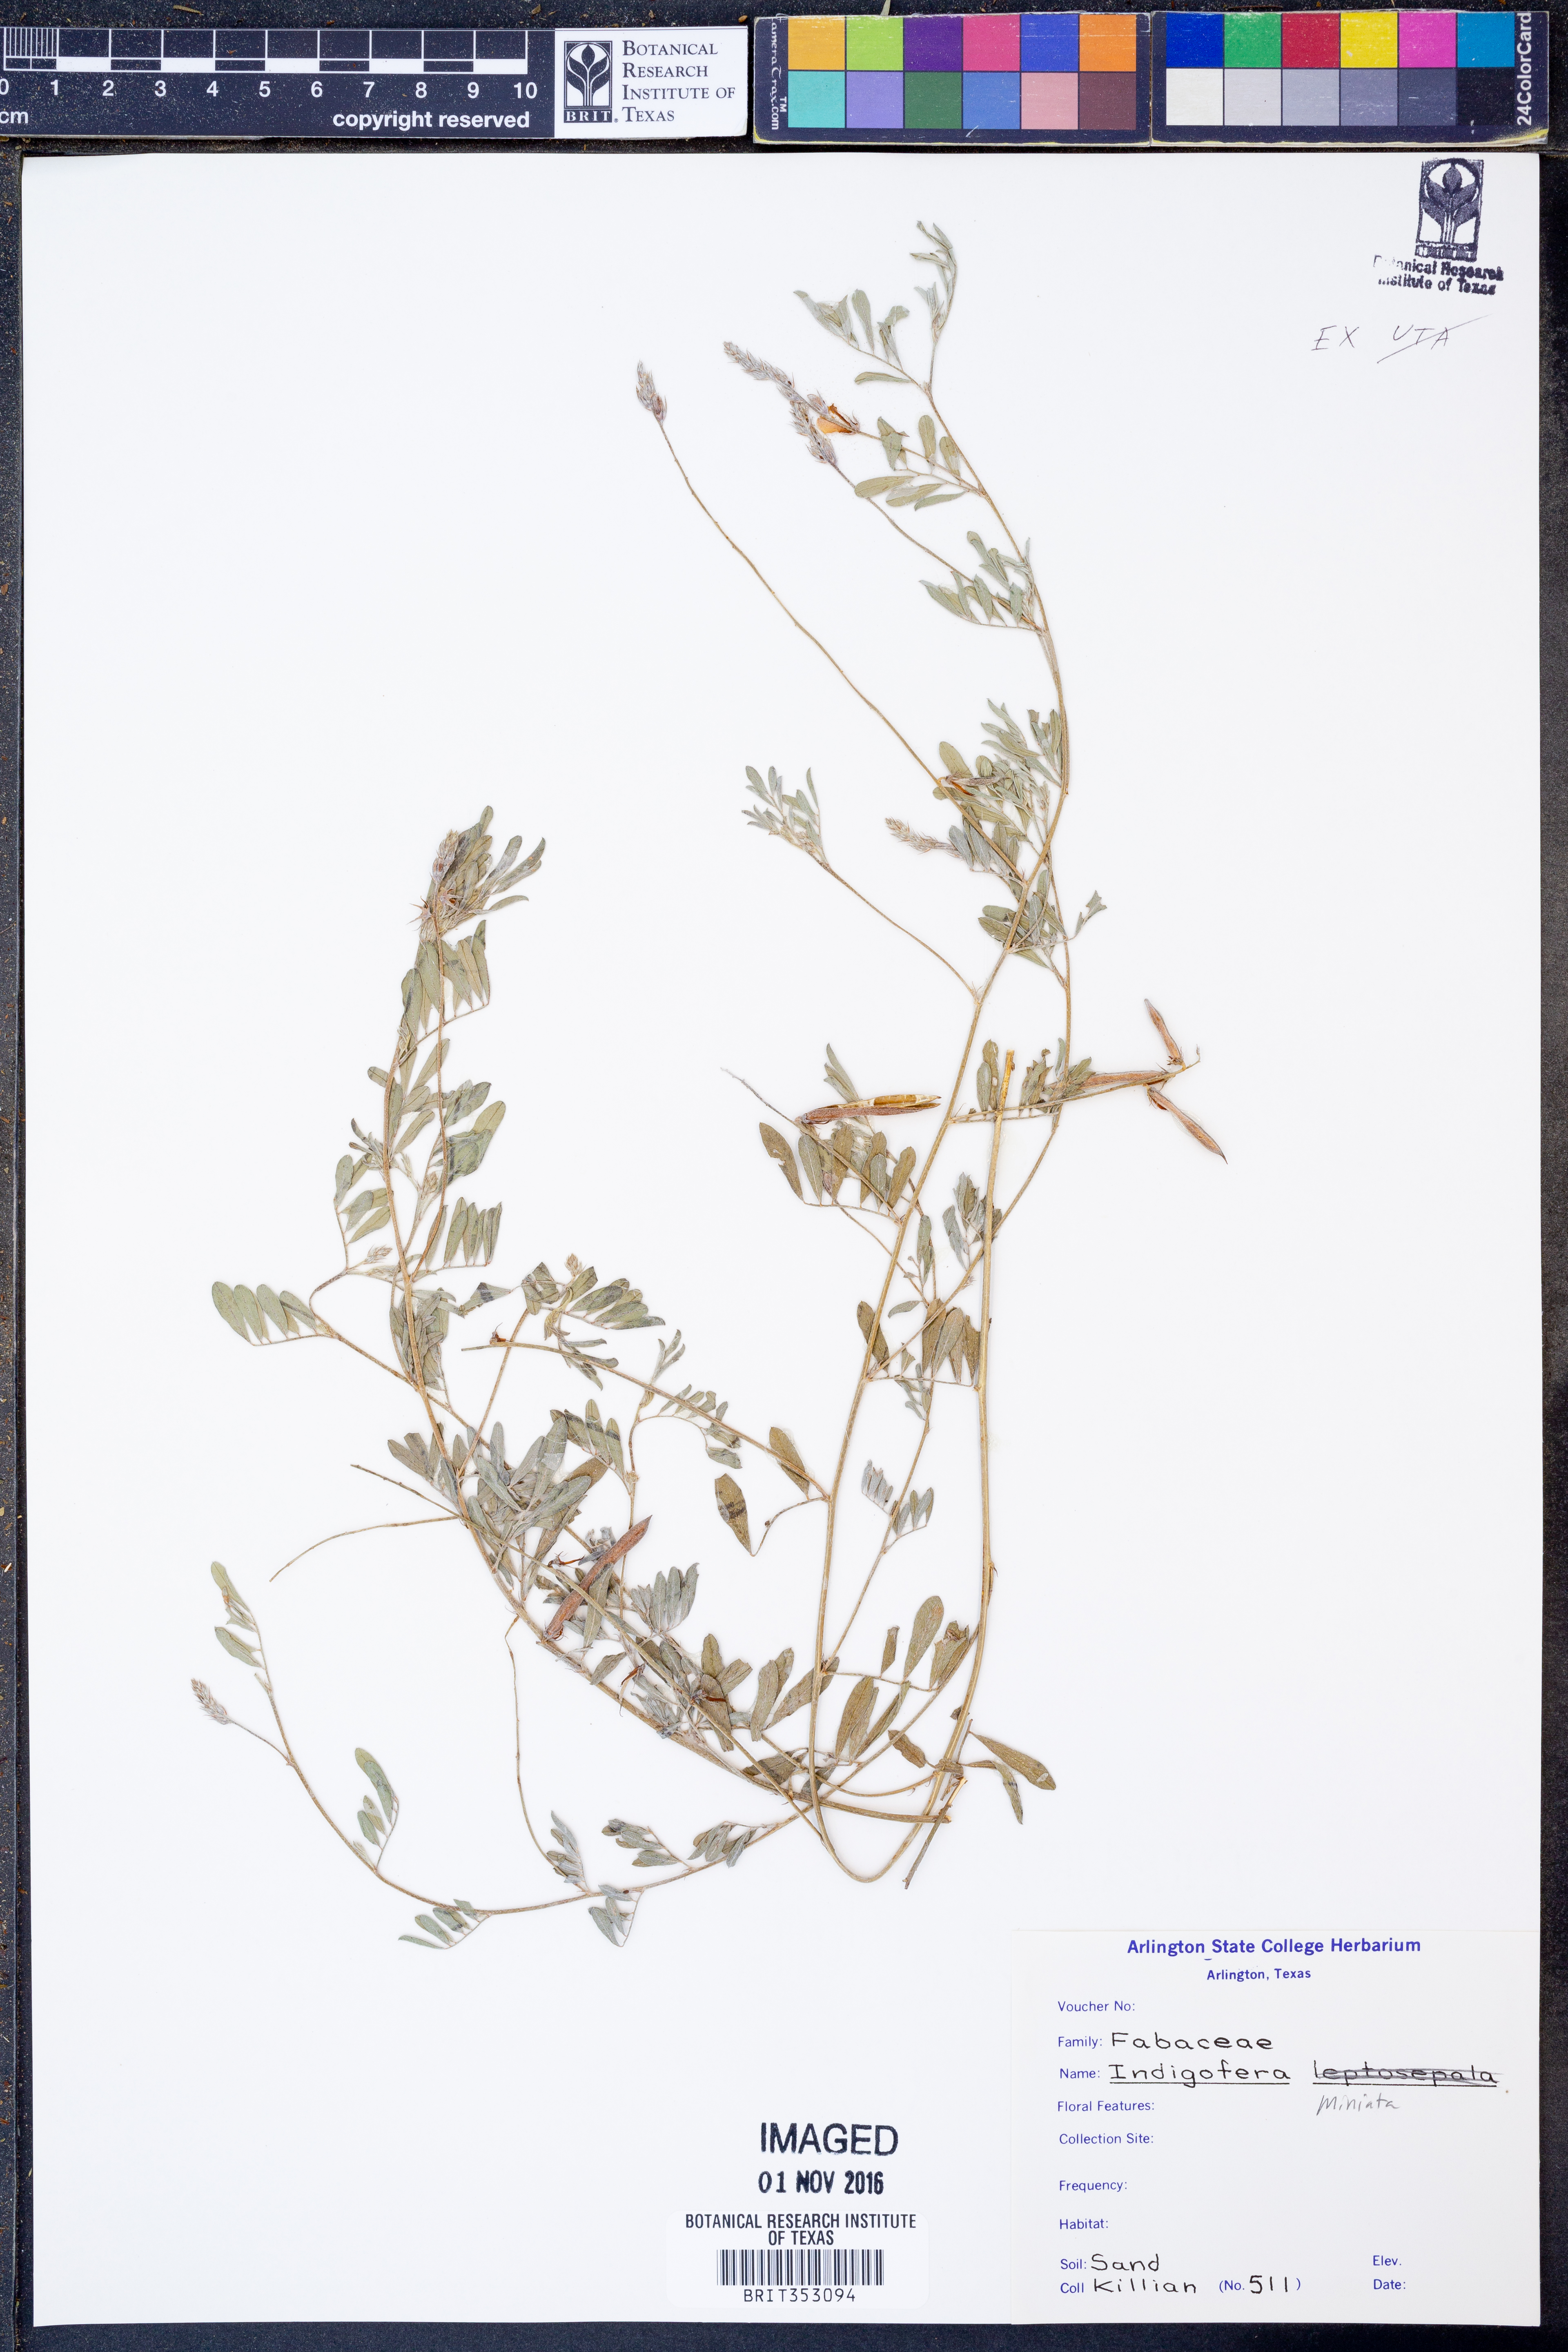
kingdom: Plantae
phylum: Tracheophyta
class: Magnoliopsida
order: Fabales
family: Fabaceae
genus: Indigofera
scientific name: Indigofera miniata
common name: Coast indigo
